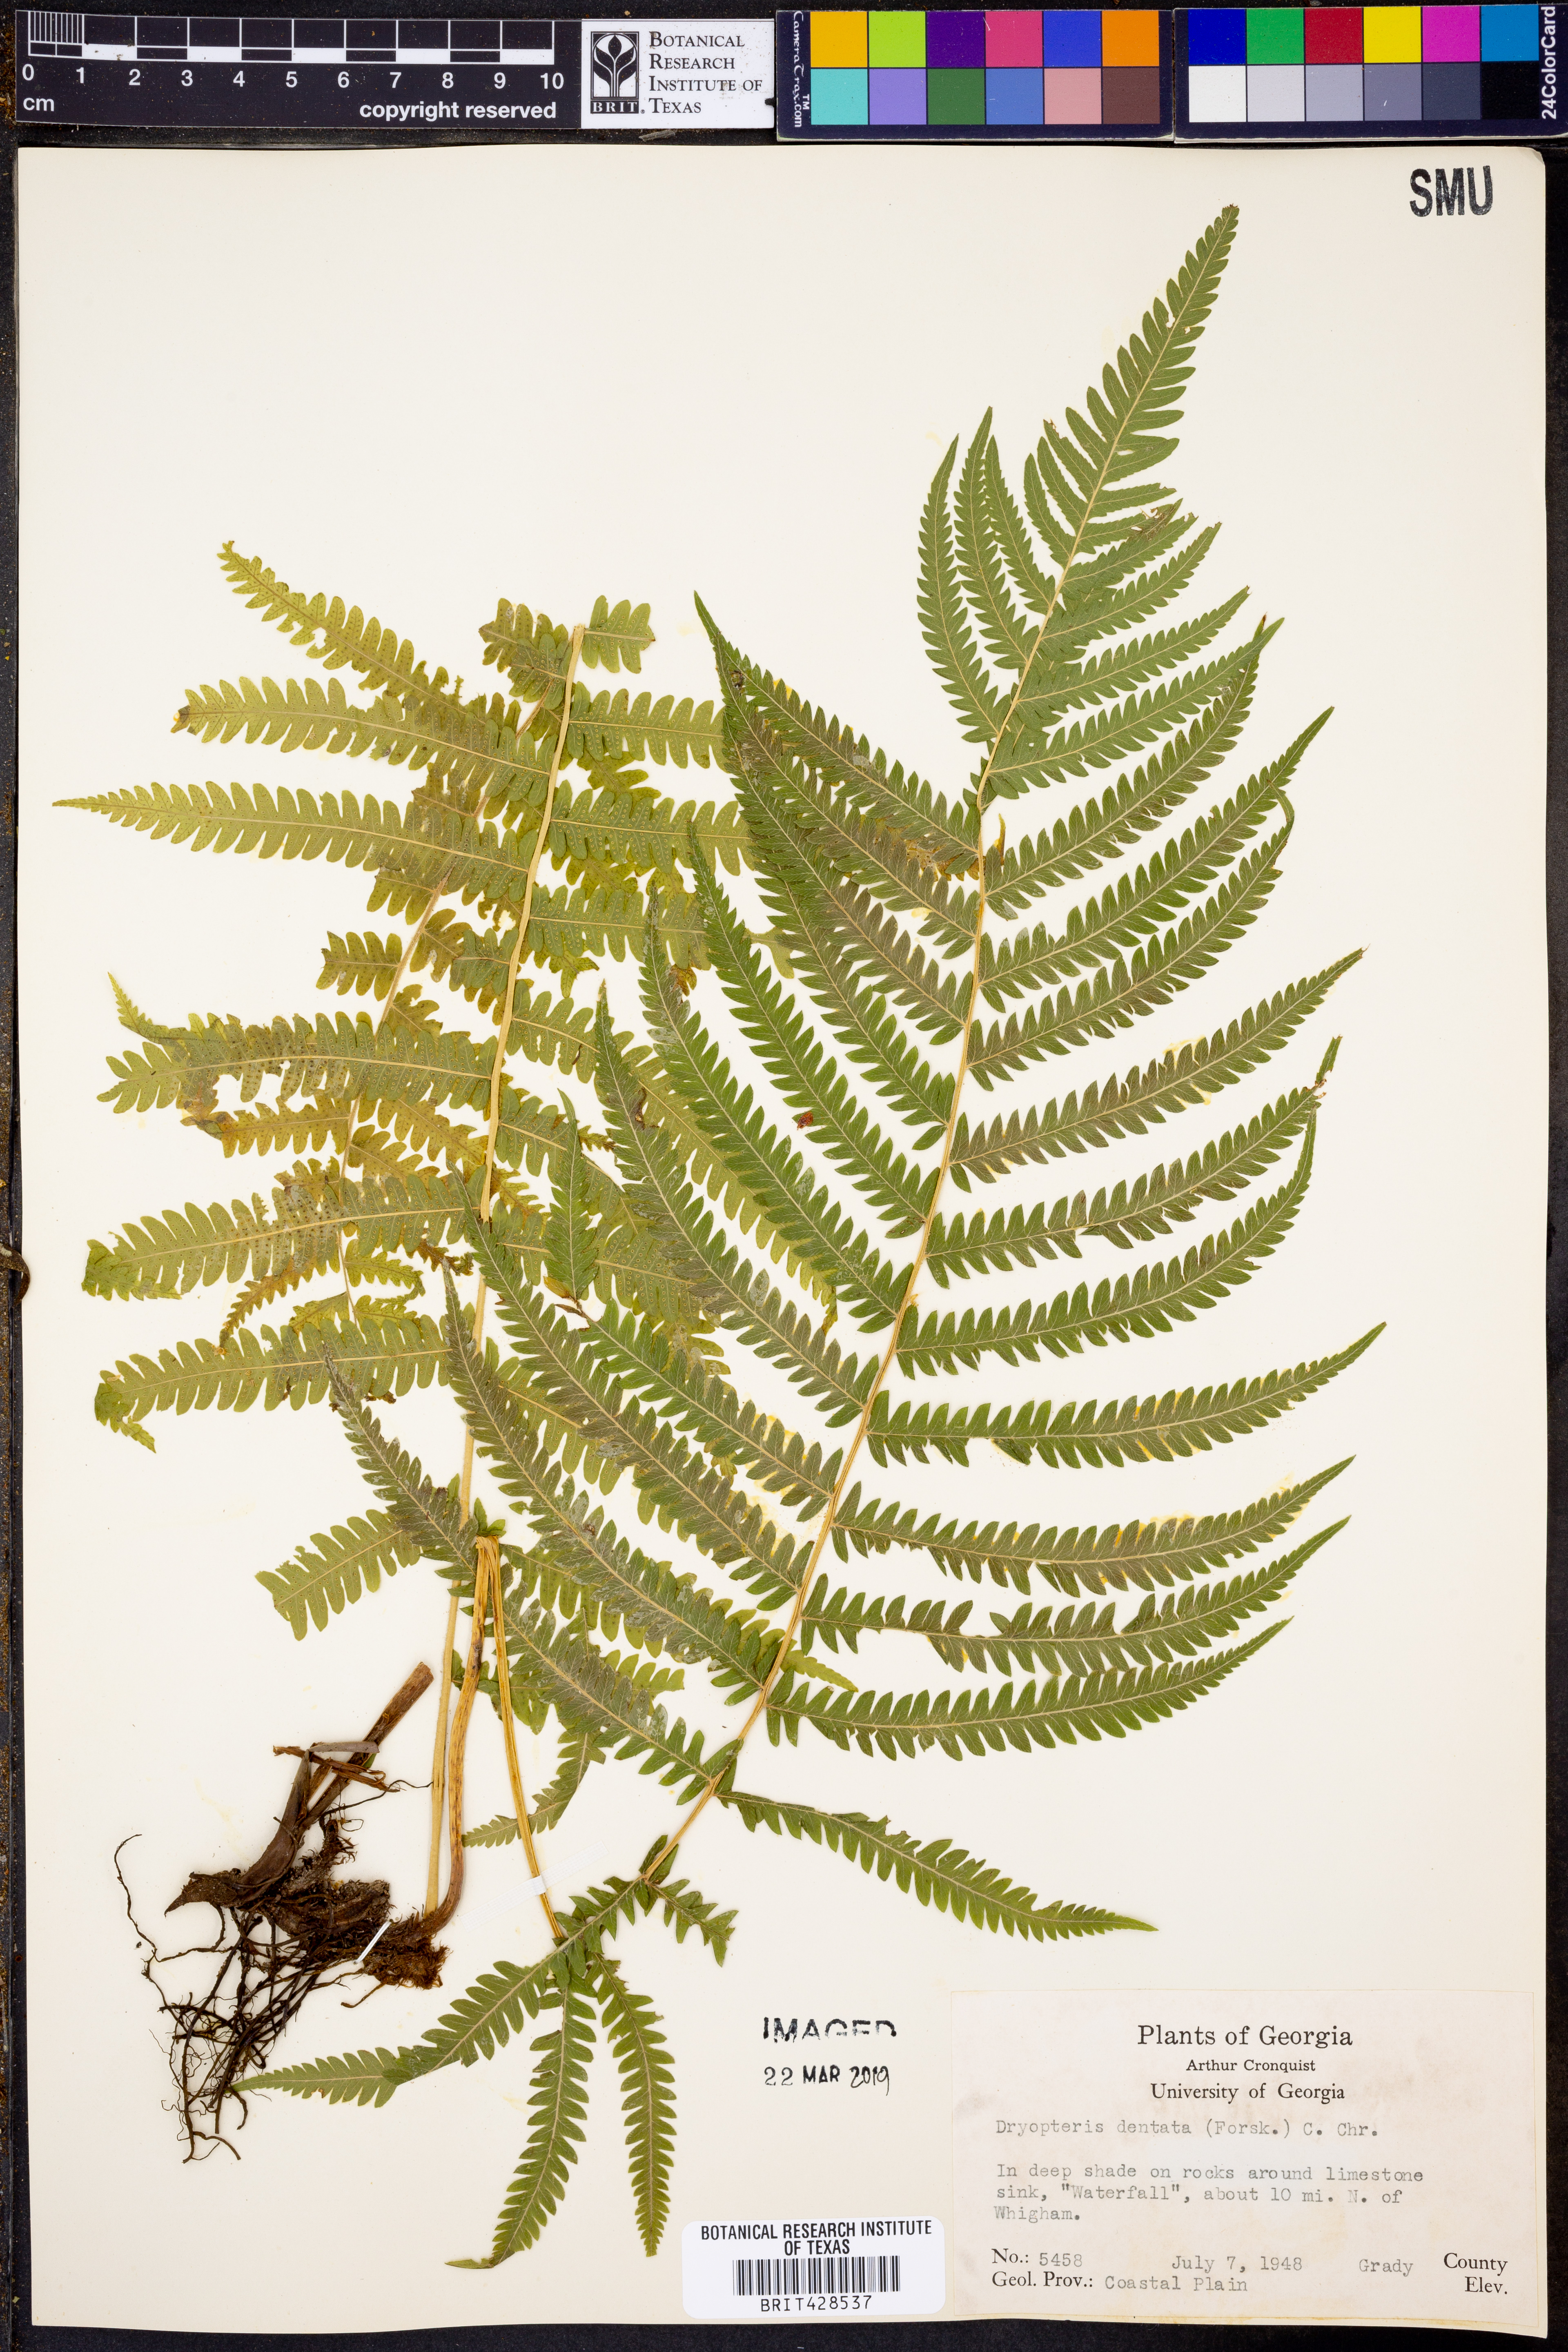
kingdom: Plantae
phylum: Tracheophyta
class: Polypodiopsida
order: Polypodiales
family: Thelypteridaceae
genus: Christella
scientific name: Christella dentata
